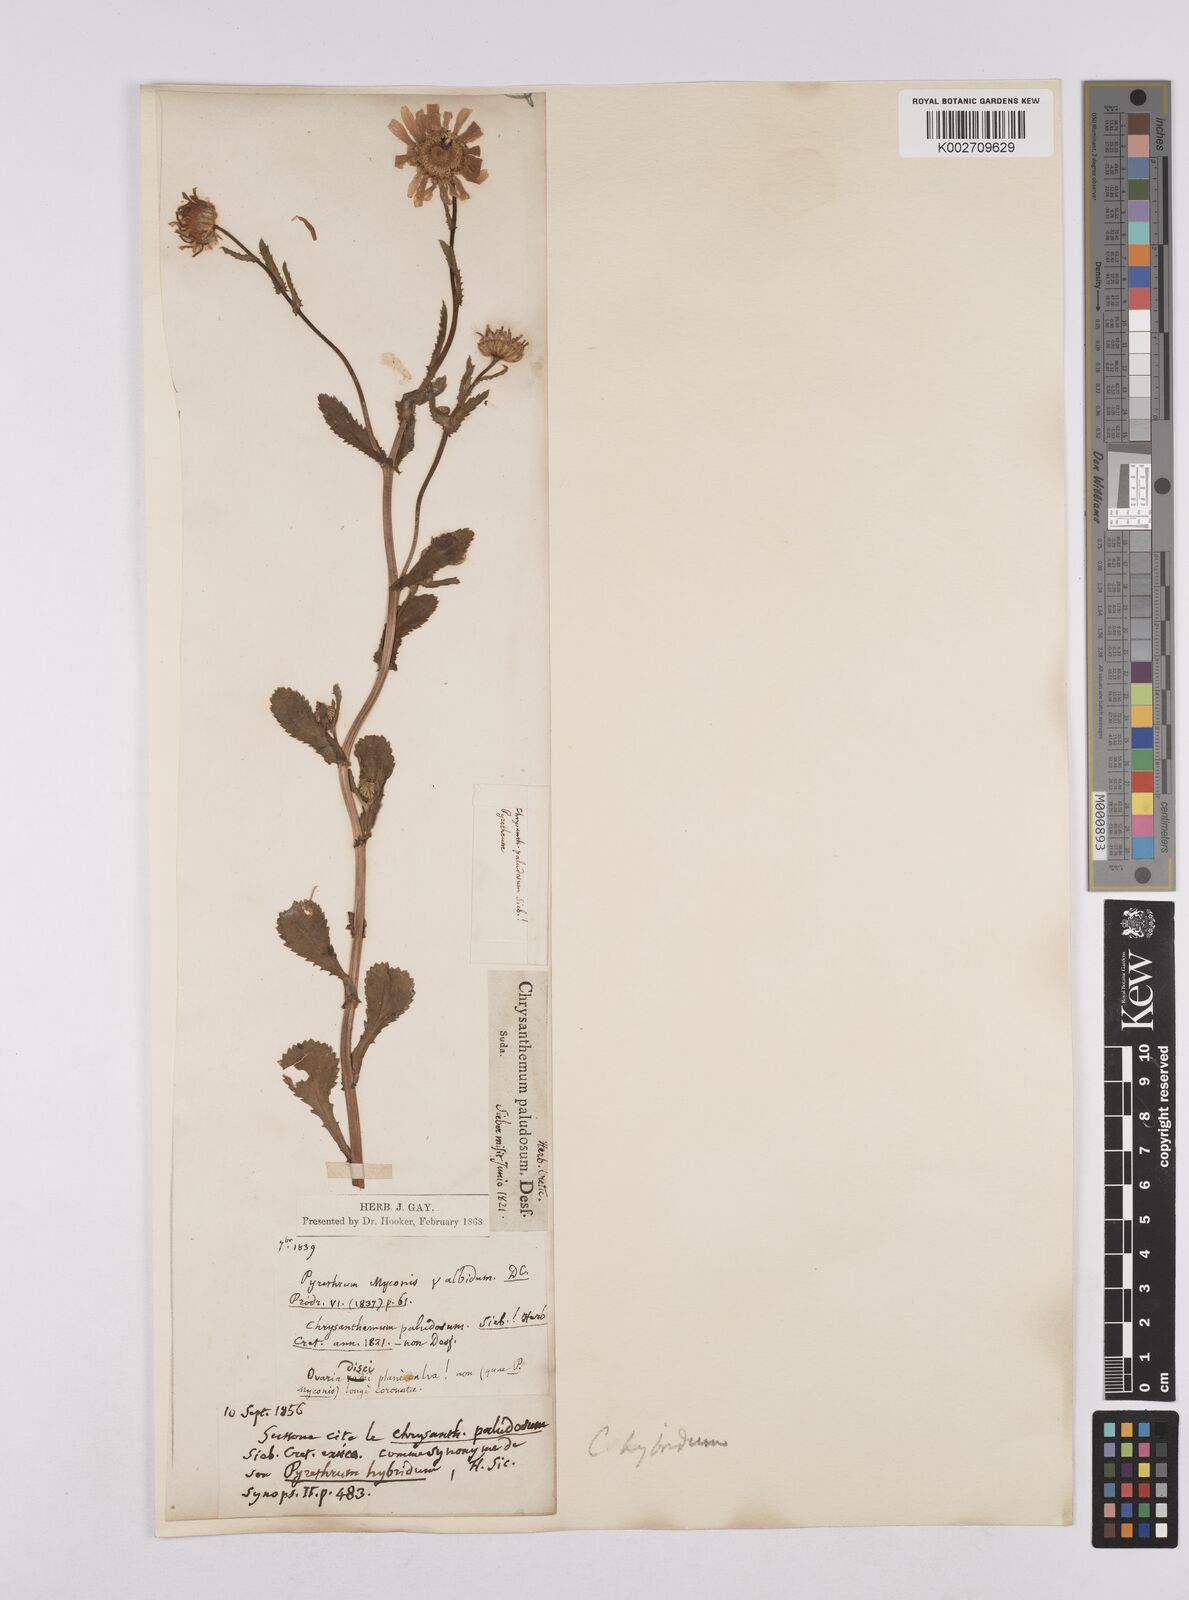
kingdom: Plantae
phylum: Tracheophyta
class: Magnoliopsida
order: Asterales
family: Asteraceae
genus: Coleostephus
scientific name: Coleostephus paludosus
